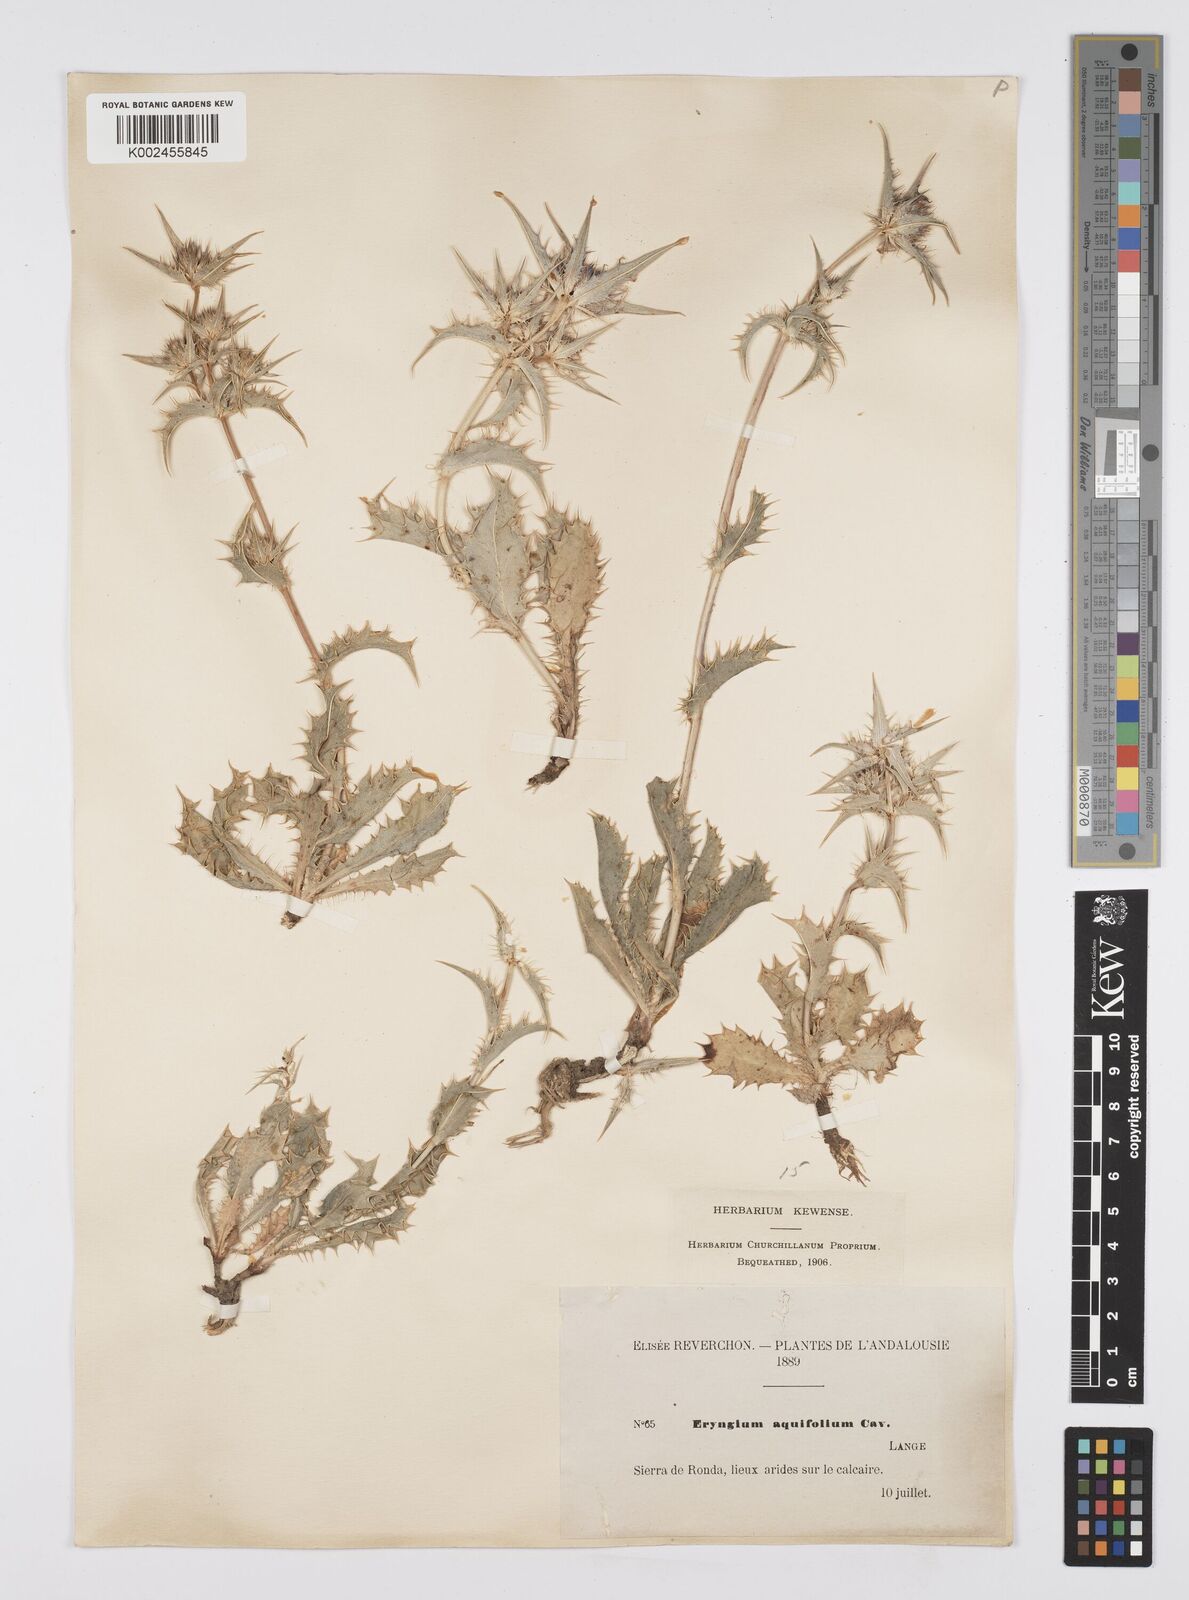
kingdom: Plantae
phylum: Tracheophyta
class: Magnoliopsida
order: Apiales
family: Apiaceae
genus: Eryngium
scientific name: Eryngium aquifolium
